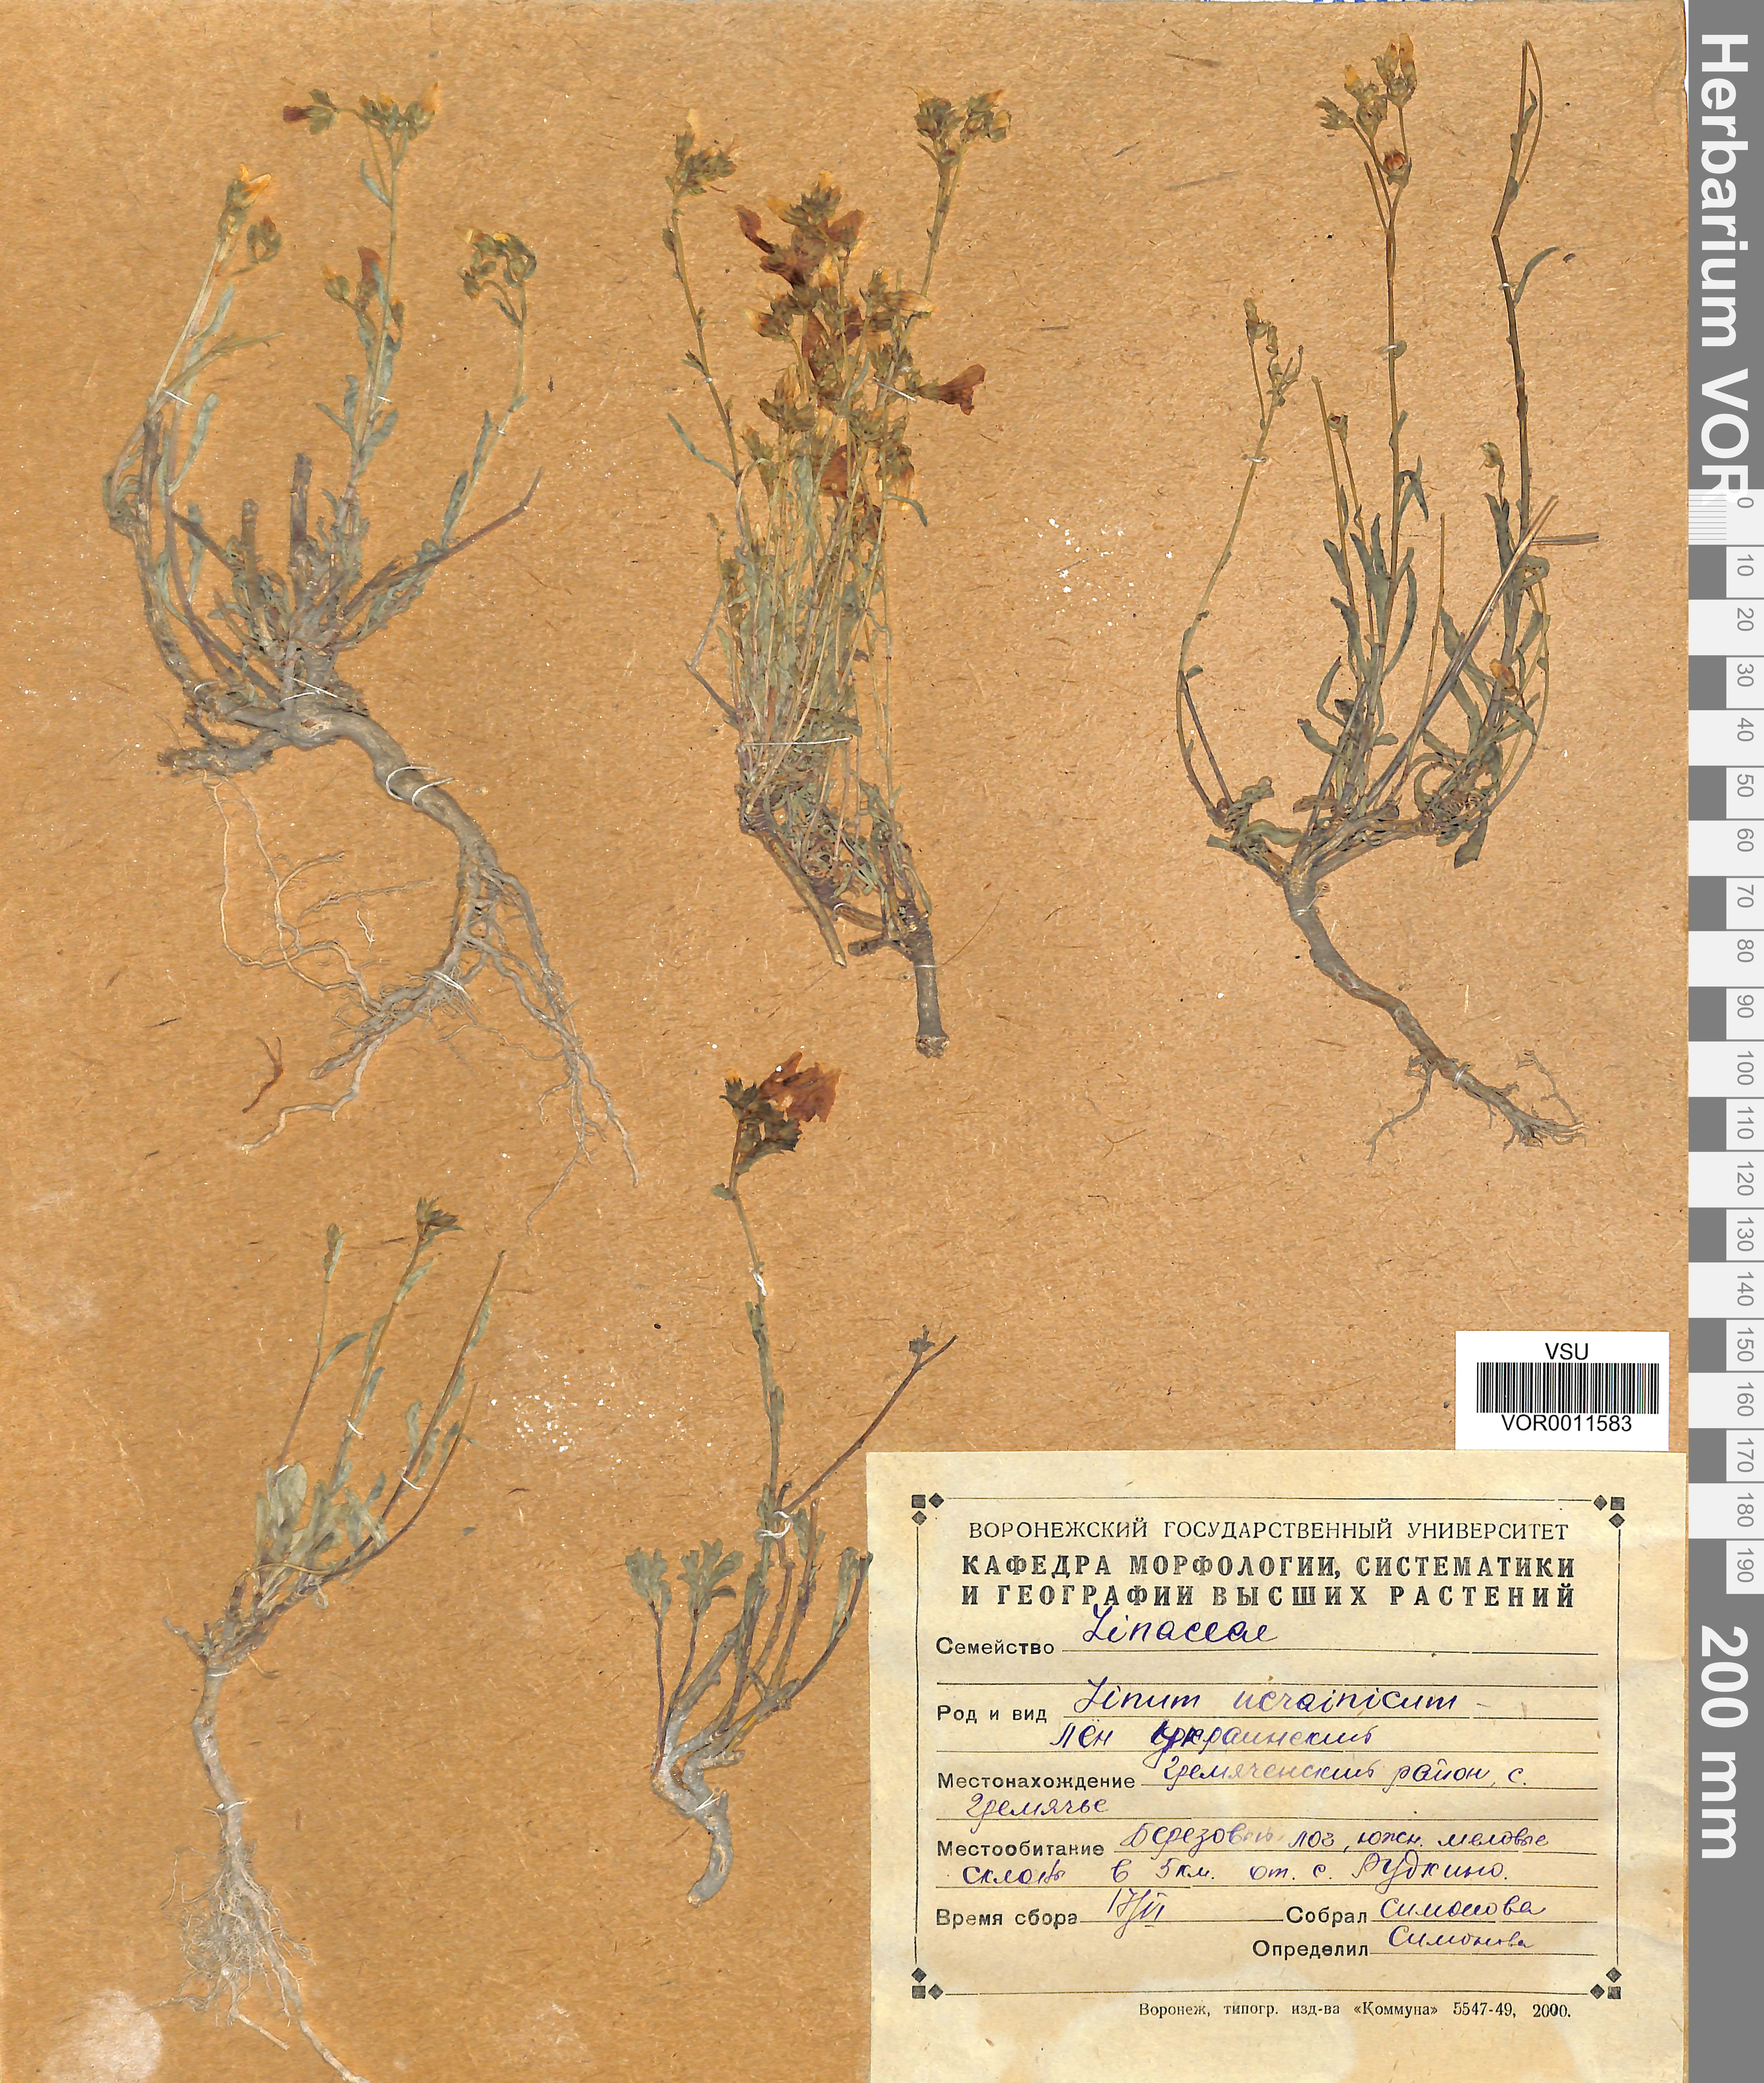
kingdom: Plantae
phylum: Tracheophyta
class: Magnoliopsida
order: Malpighiales
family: Linaceae
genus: Linum
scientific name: Linum ucranicum
